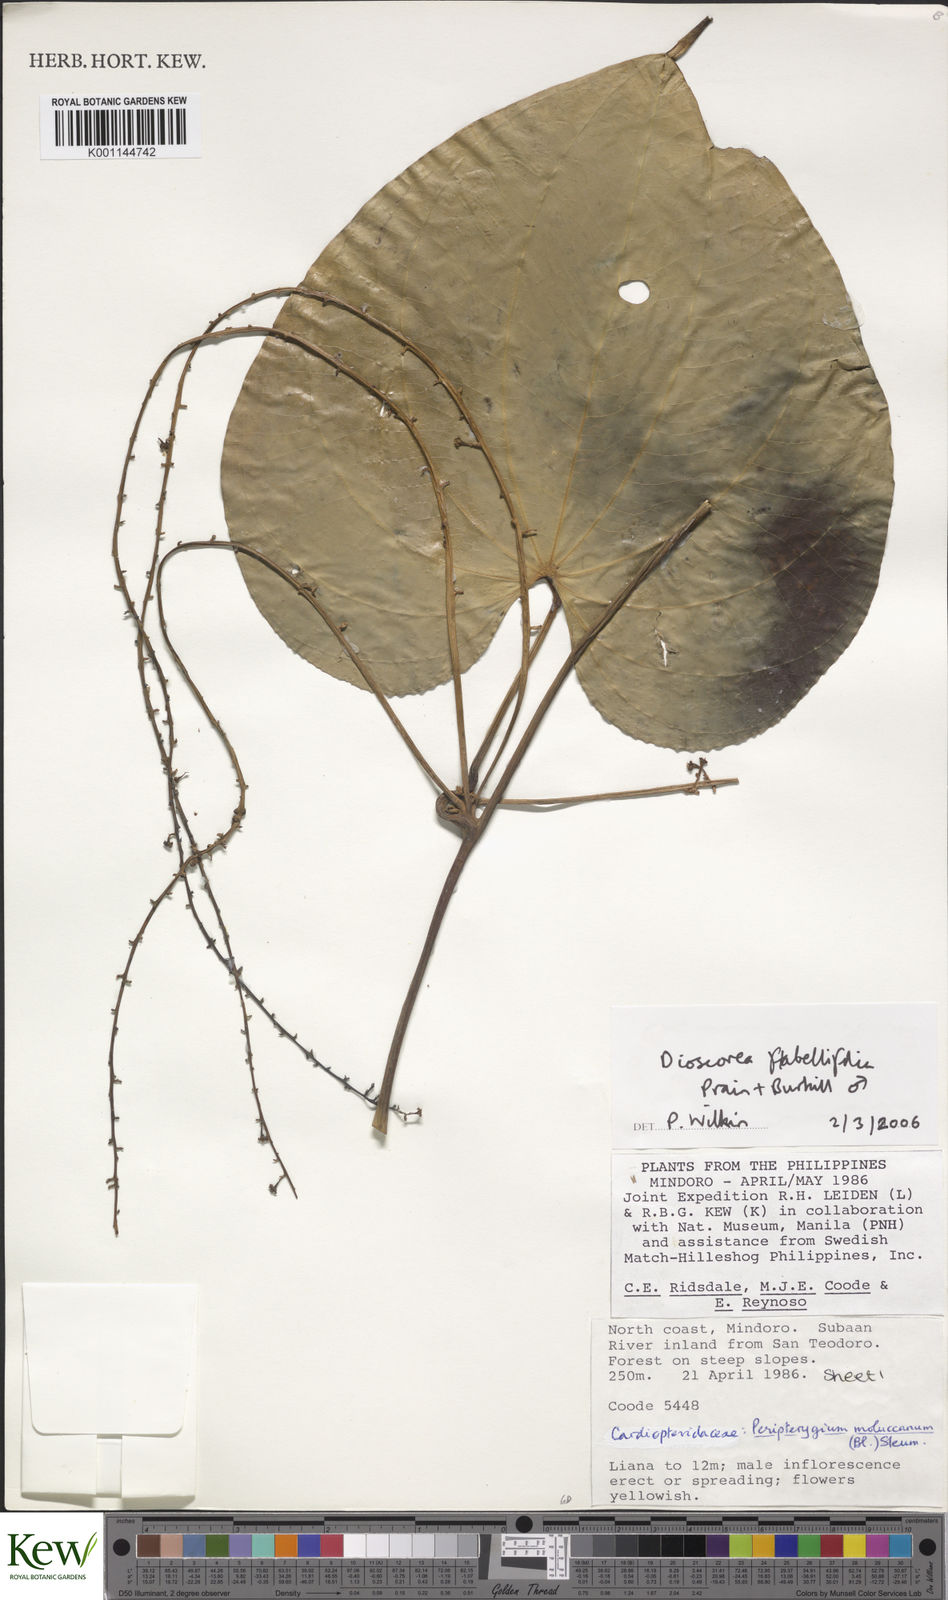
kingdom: Plantae
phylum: Tracheophyta
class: Liliopsida
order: Dioscoreales
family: Dioscoreaceae
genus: Dioscorea
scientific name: Dioscorea flabellifolia
